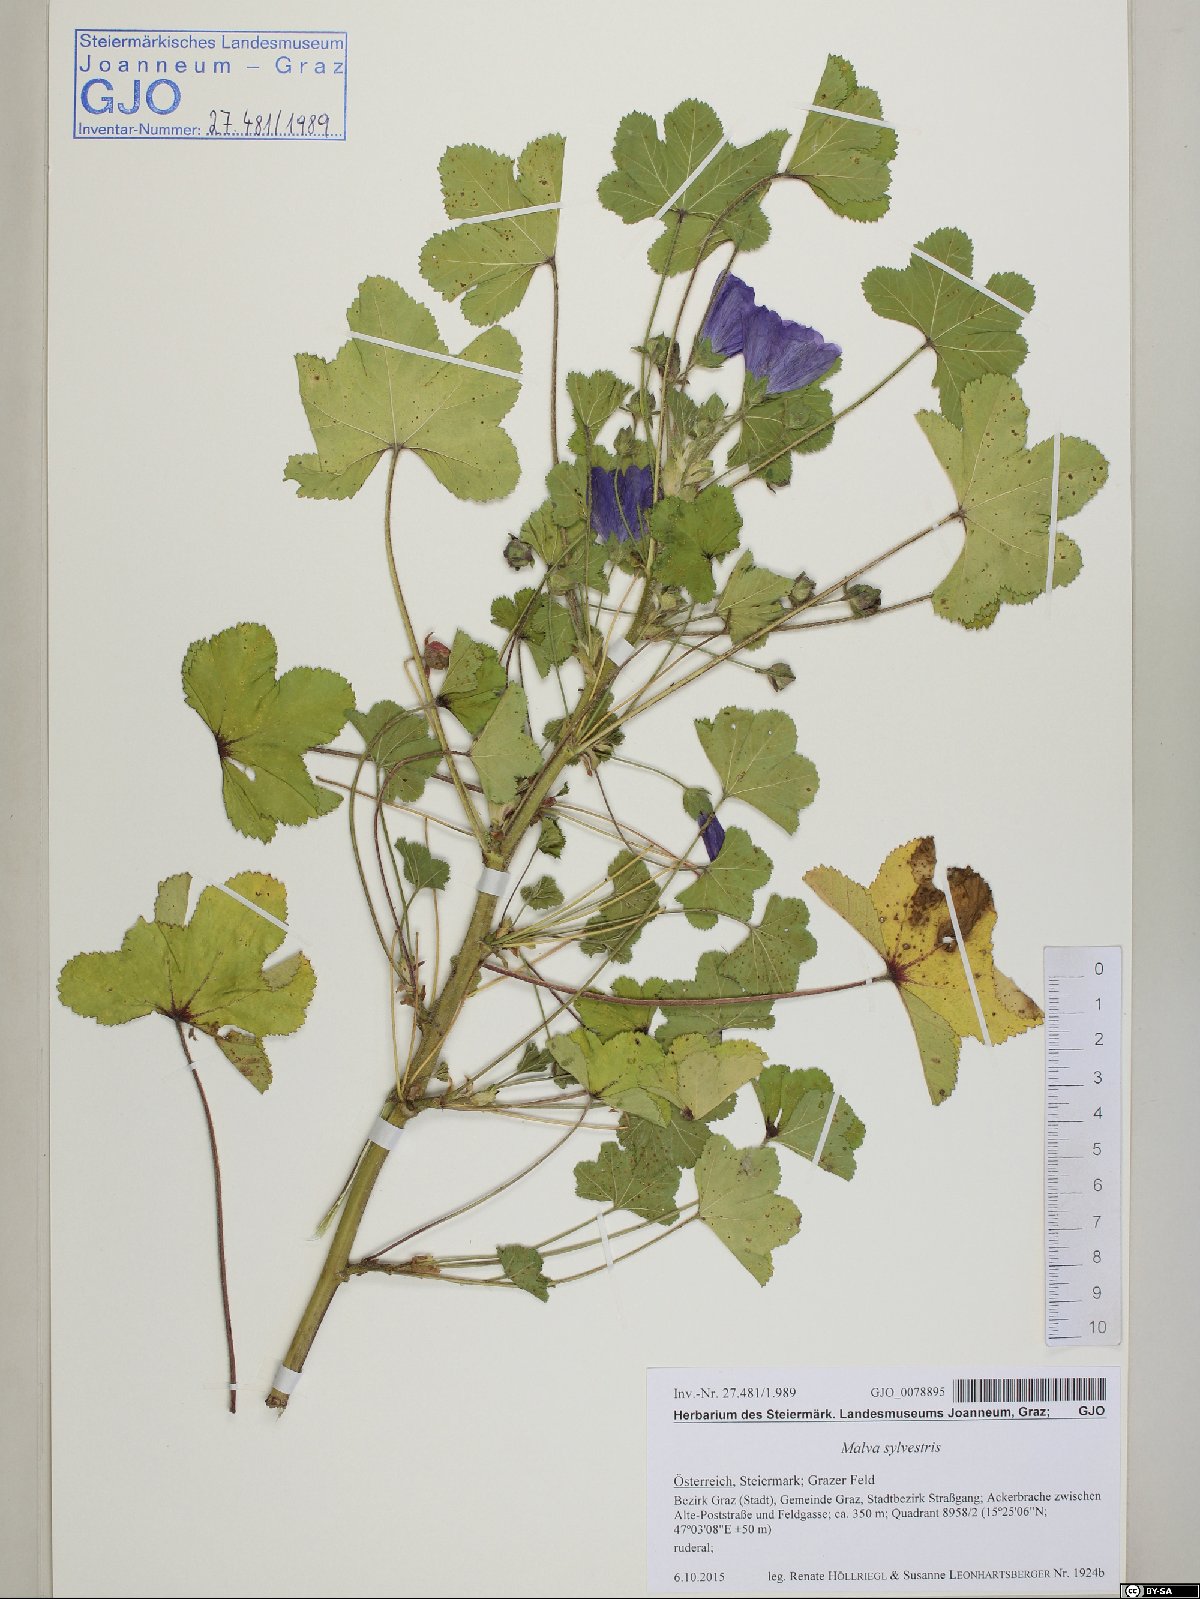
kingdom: Plantae
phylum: Tracheophyta
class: Magnoliopsida
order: Malvales
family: Malvaceae
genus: Malva
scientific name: Malva sylvestris
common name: Common mallow
